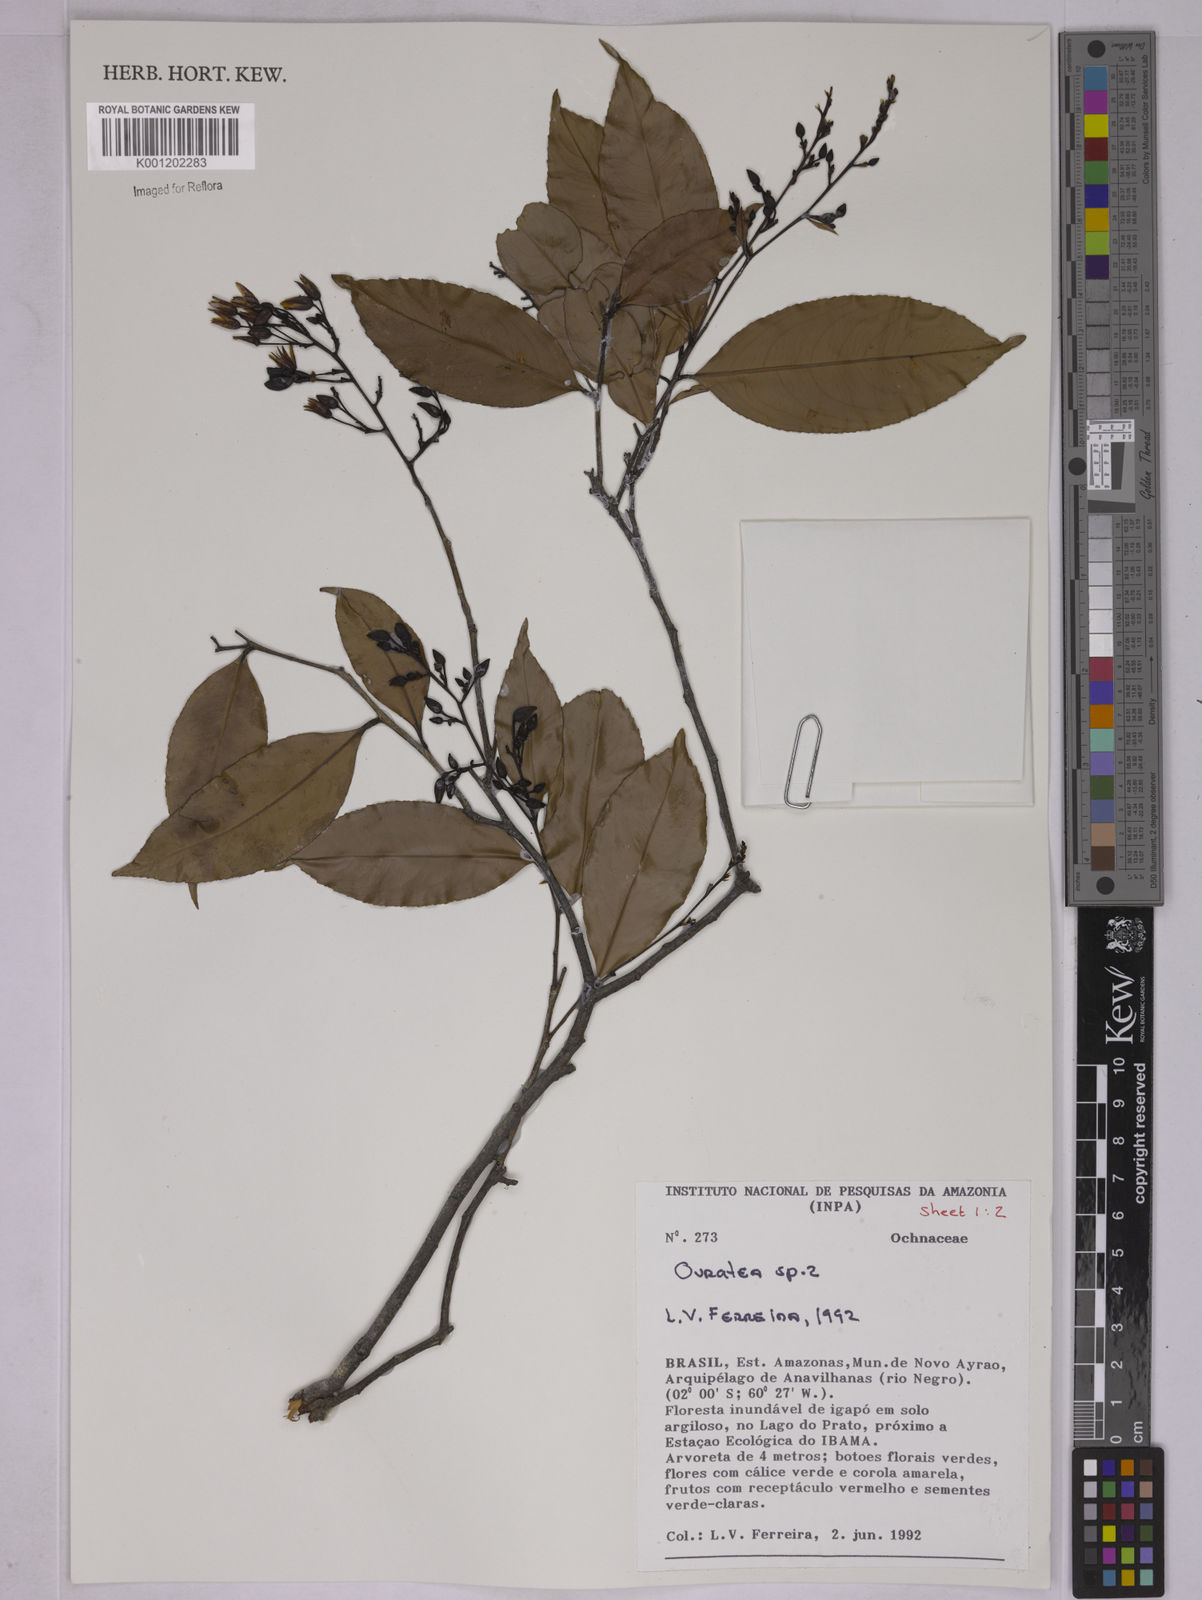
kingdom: Plantae
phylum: Tracheophyta
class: Magnoliopsida
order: Malpighiales
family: Ochnaceae
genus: Ouratea
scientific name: Ouratea
